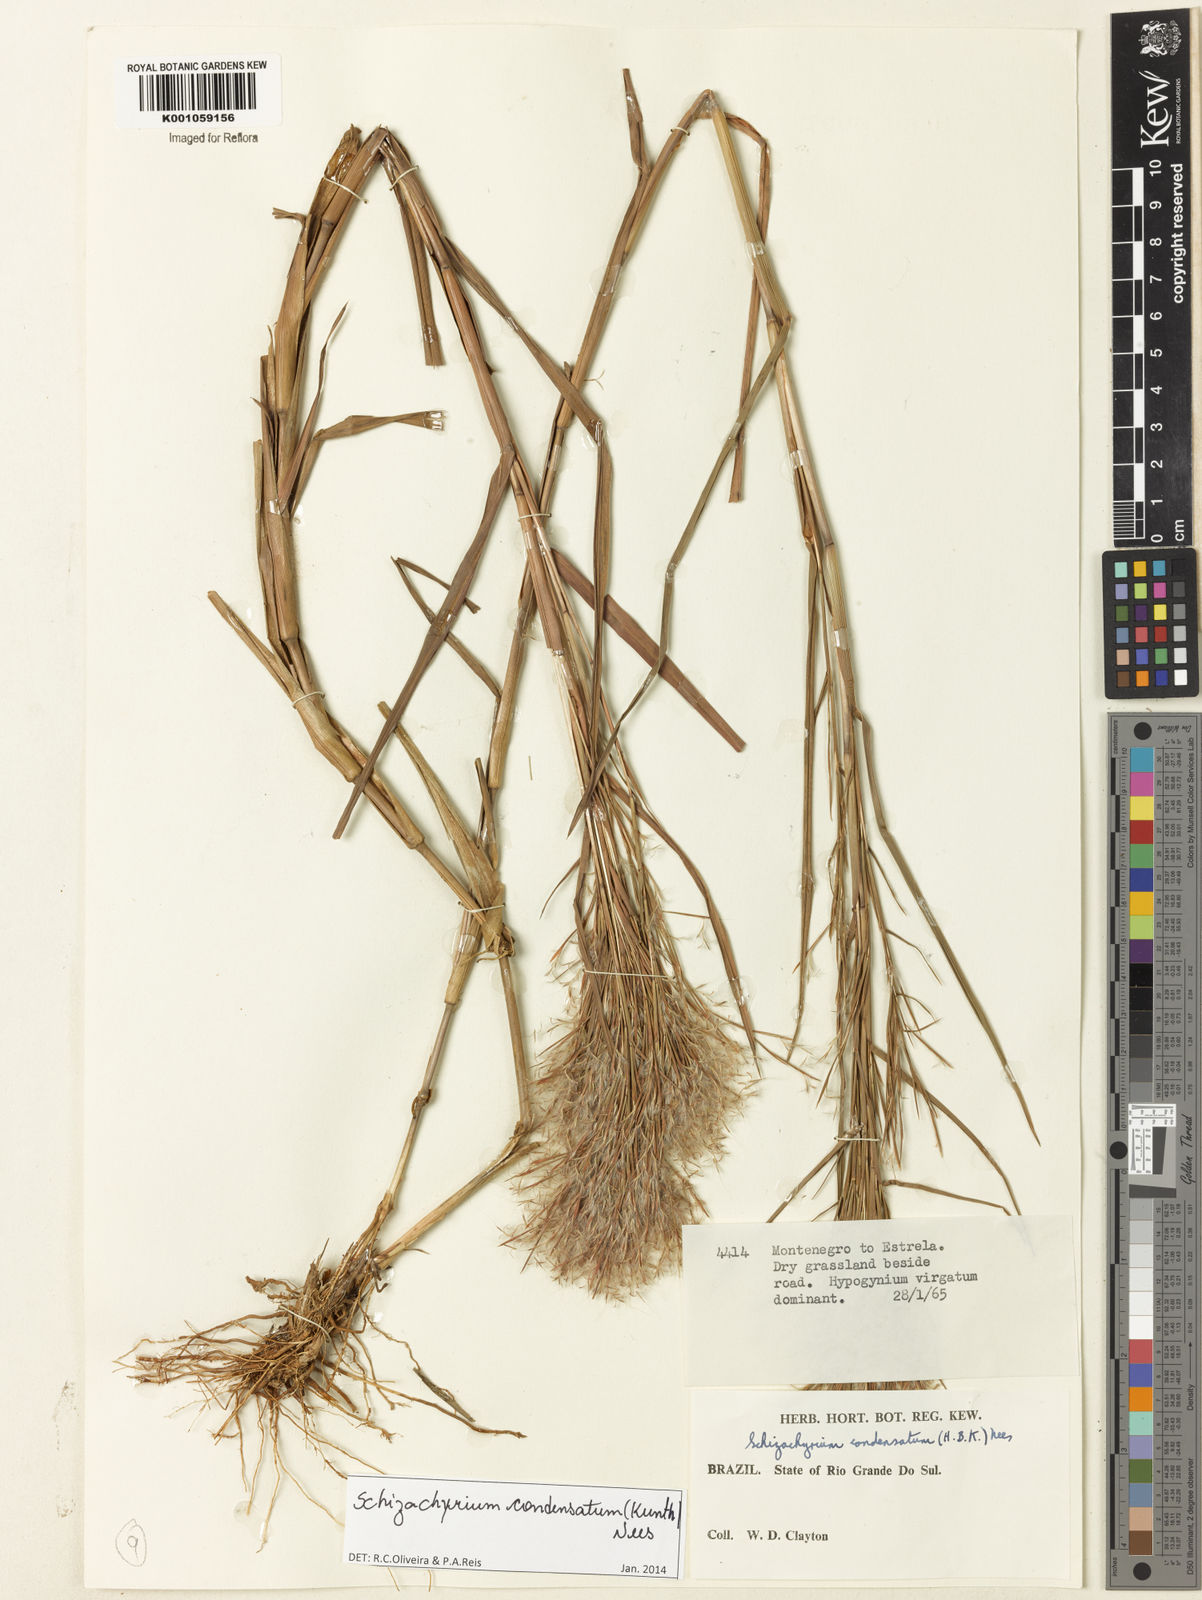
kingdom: Plantae
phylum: Tracheophyta
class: Liliopsida
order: Poales
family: Poaceae
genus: Schizachyrium
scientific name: Schizachyrium condensatum
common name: Bush beardgrass
